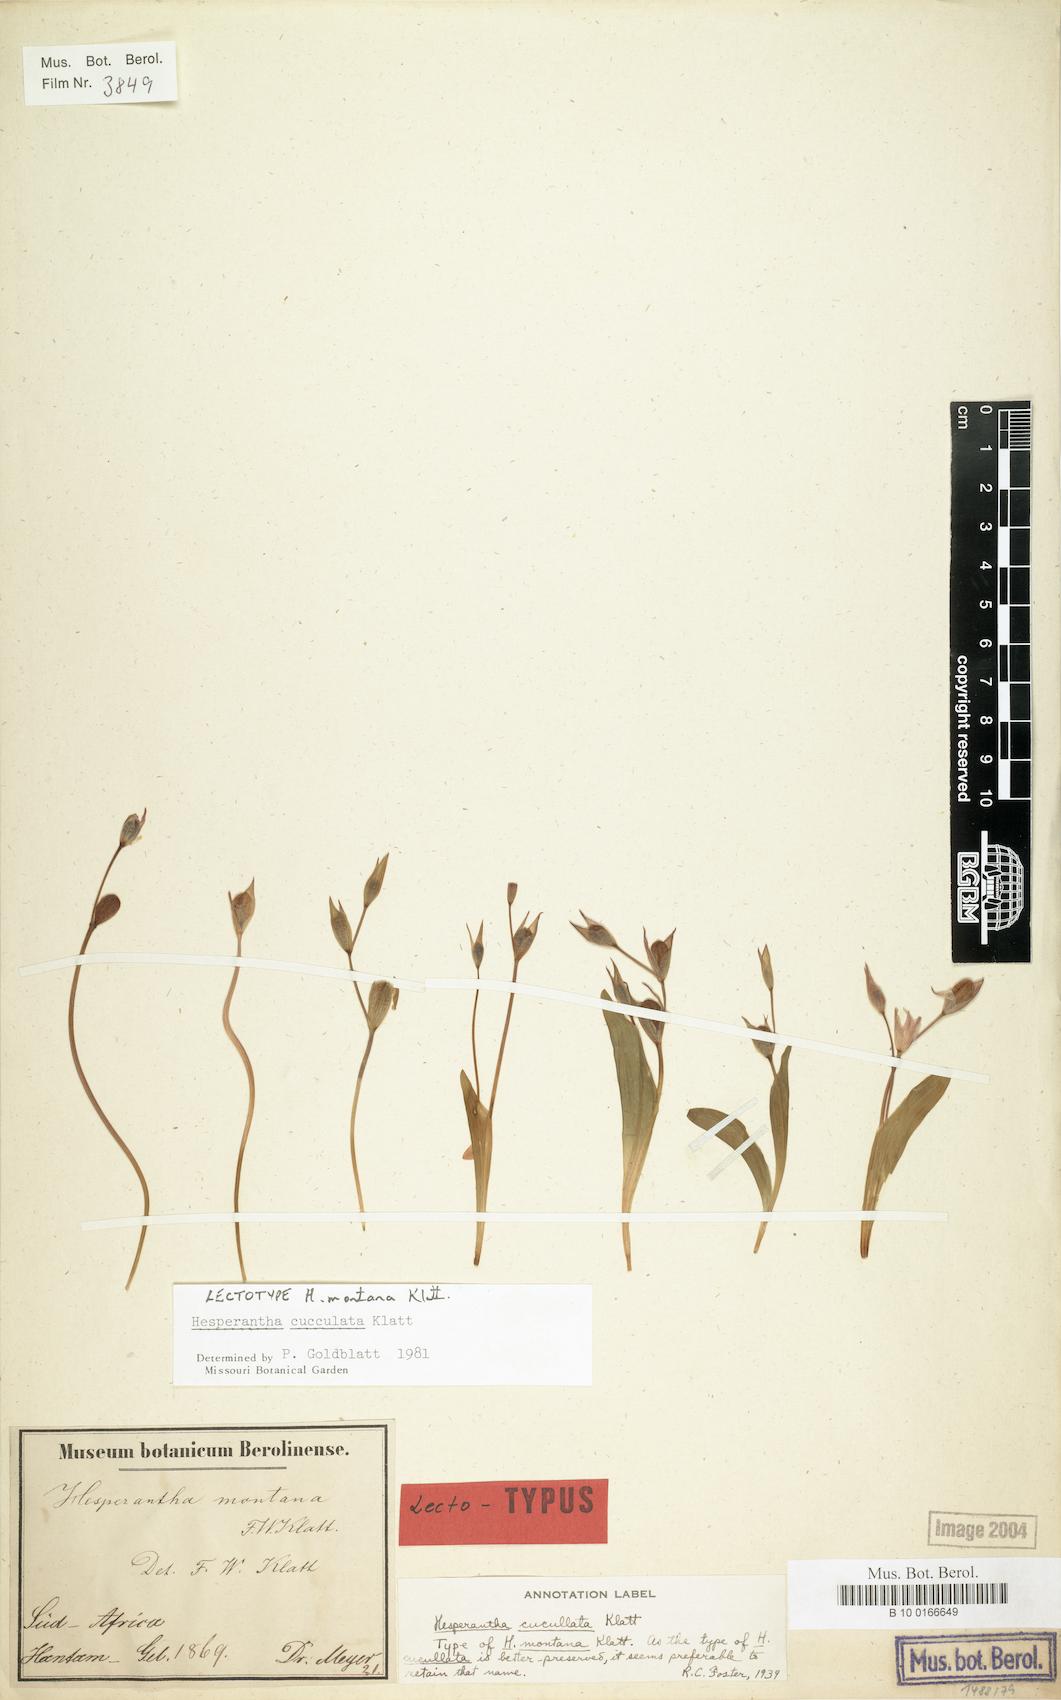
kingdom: Plantae
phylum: Tracheophyta
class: Liliopsida
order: Asparagales
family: Iridaceae
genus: Hesperantha
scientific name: Hesperantha cucullata
